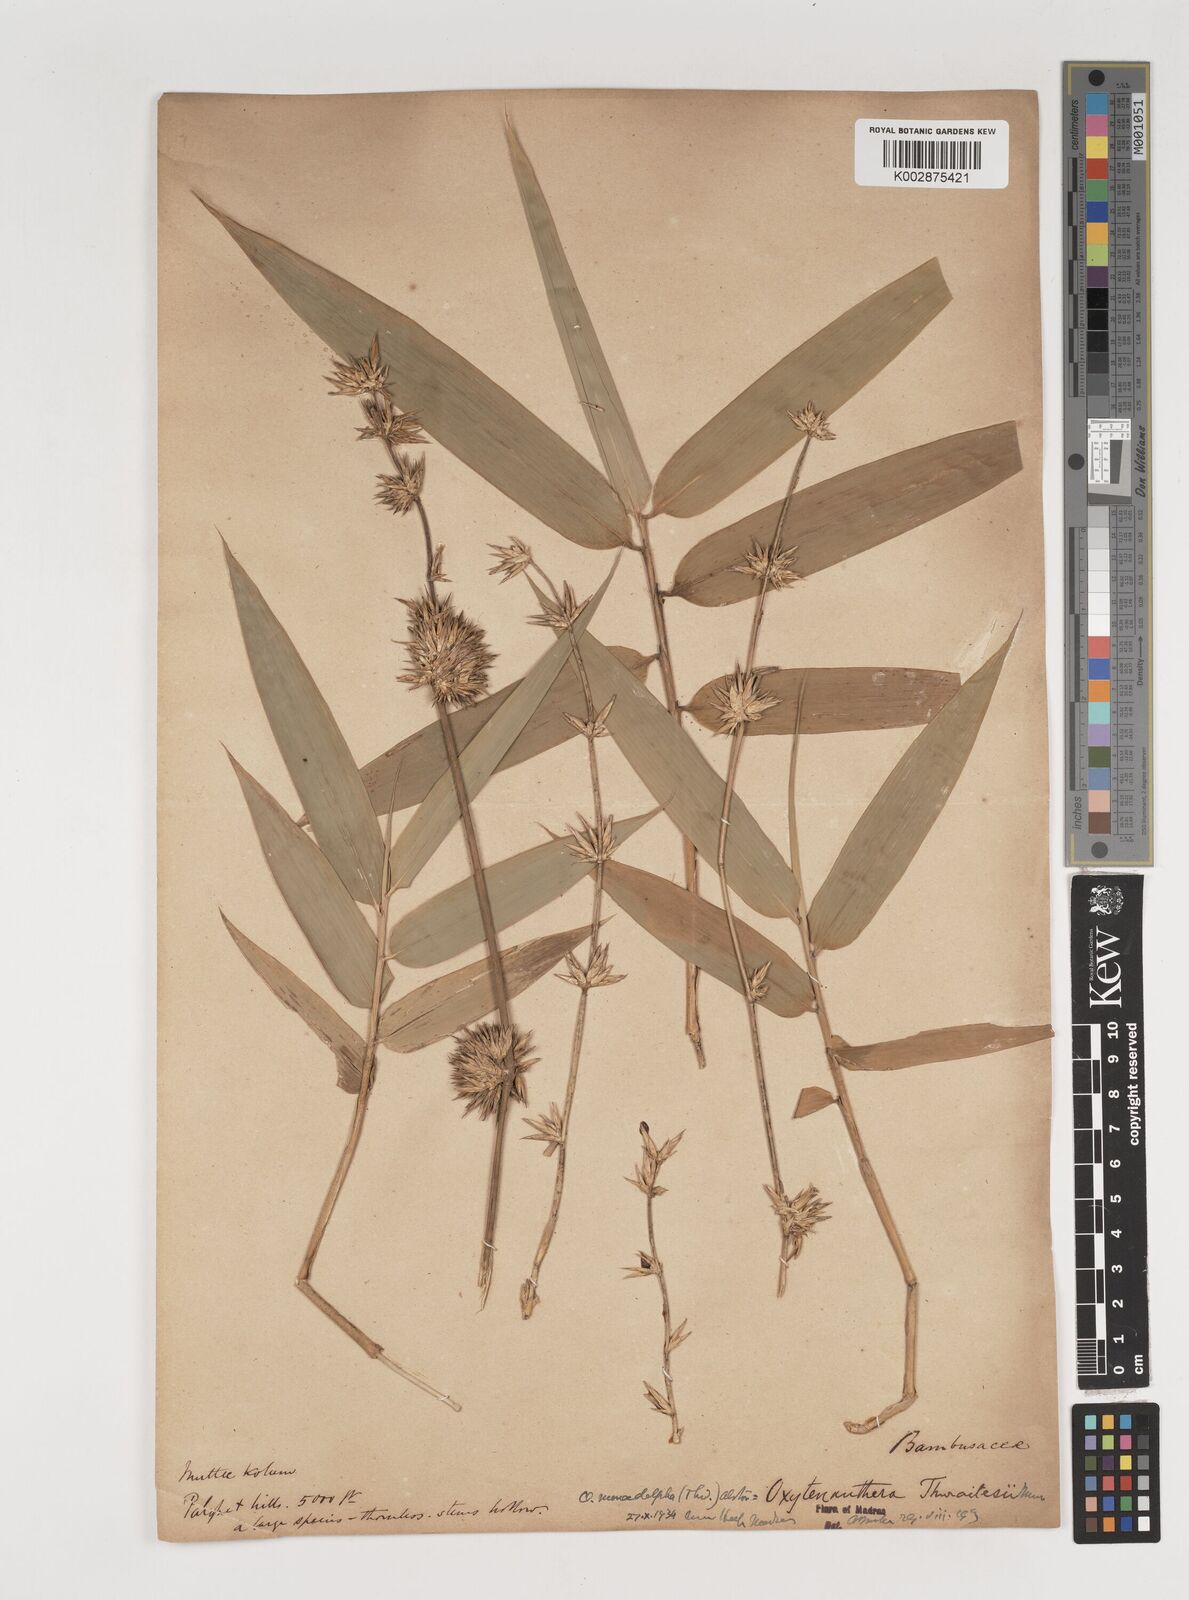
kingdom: Plantae
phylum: Tracheophyta
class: Liliopsida
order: Poales
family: Poaceae
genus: Pseudoxytenanthera
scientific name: Pseudoxytenanthera monadelpha
